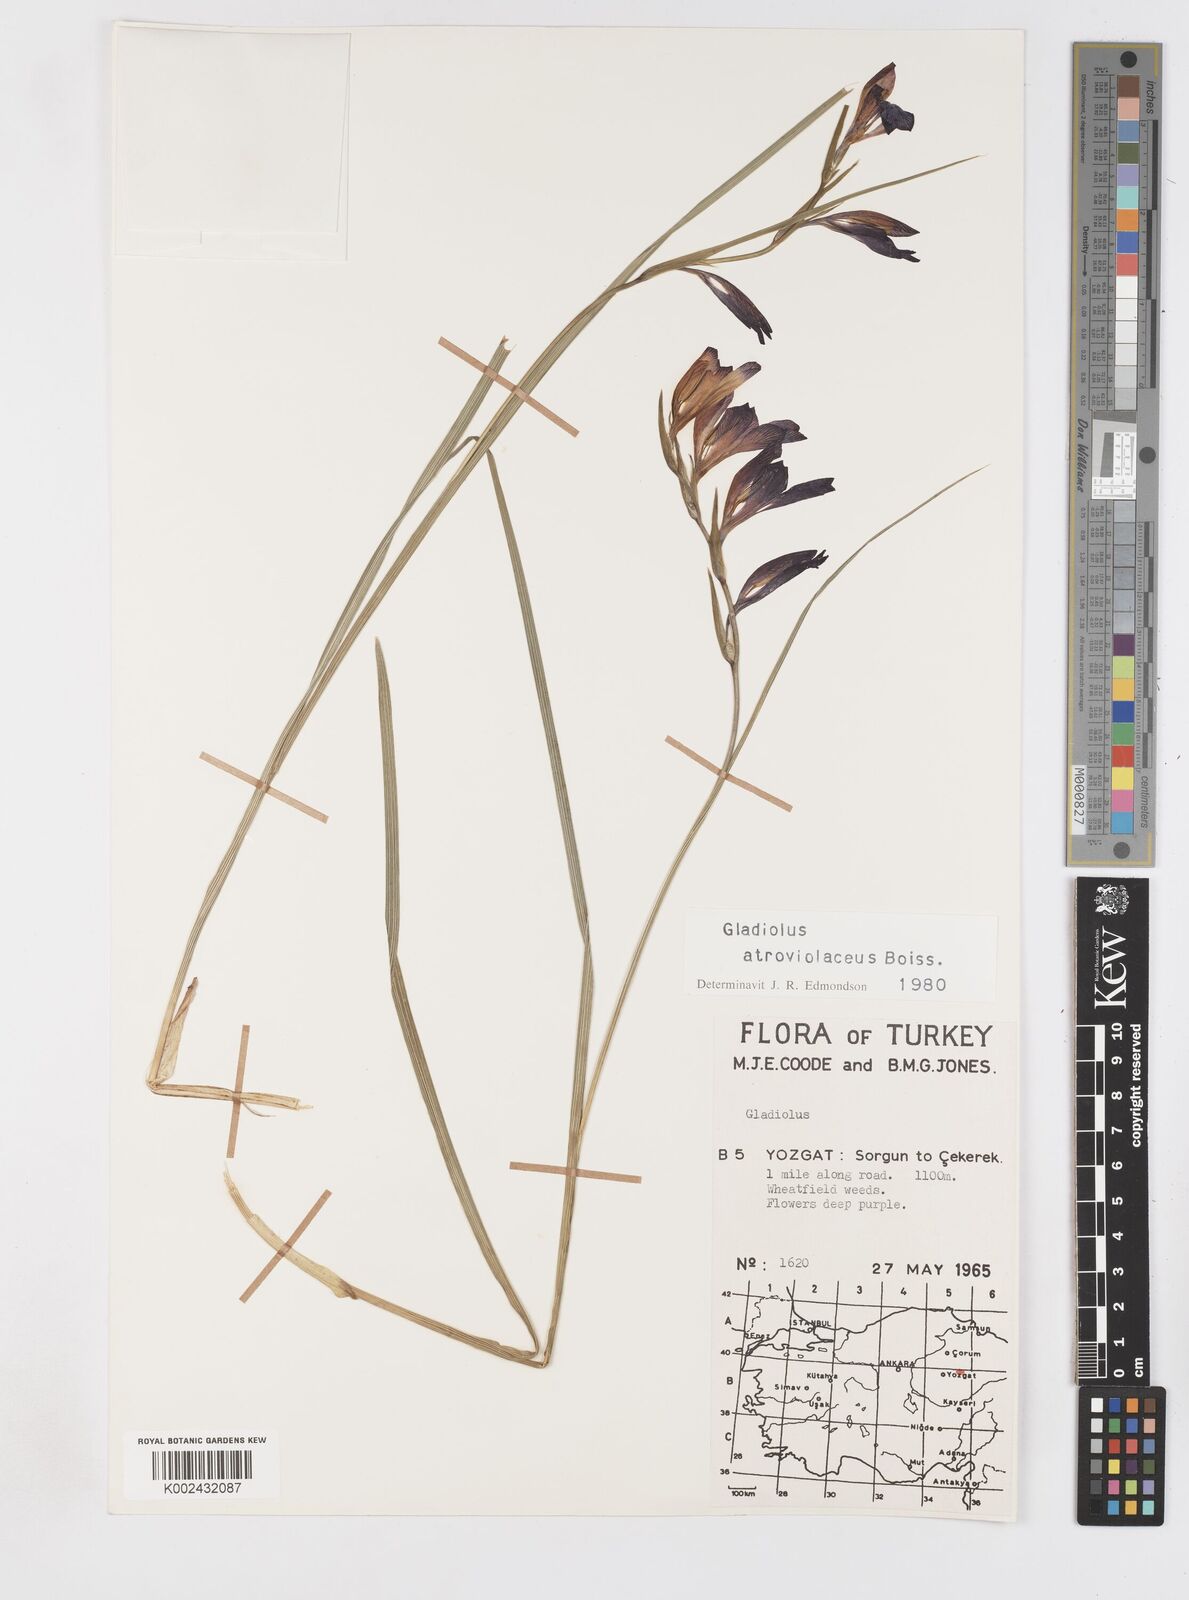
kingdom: Plantae
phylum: Tracheophyta
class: Liliopsida
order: Asparagales
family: Iridaceae
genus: Gladiolus
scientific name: Gladiolus atroviolaceus
